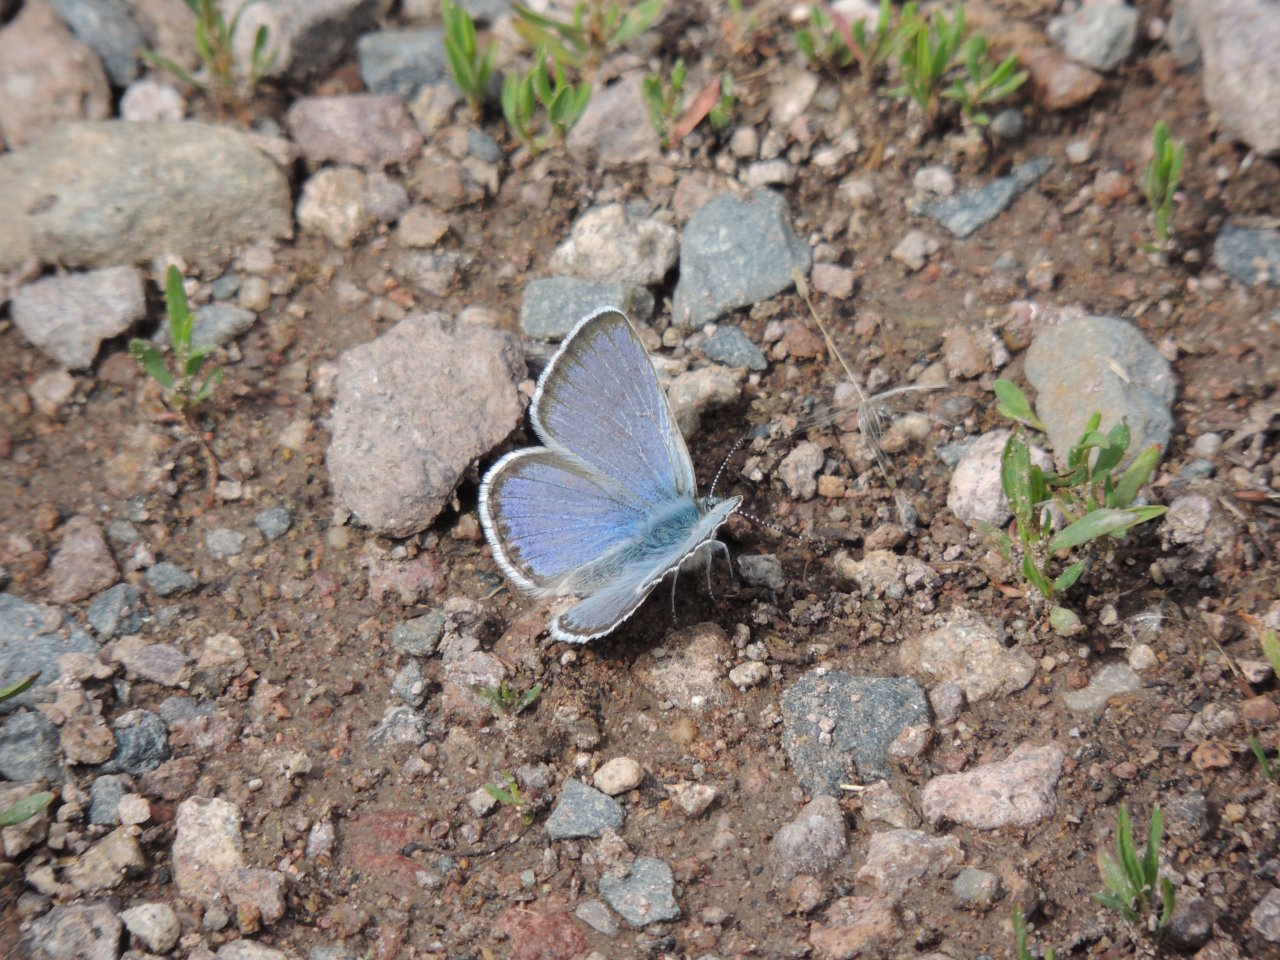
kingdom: Animalia
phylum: Arthropoda
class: Insecta
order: Lepidoptera
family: Lycaenidae
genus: Icaricia
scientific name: Icaricia icarioides
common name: Boisduval's Blue
